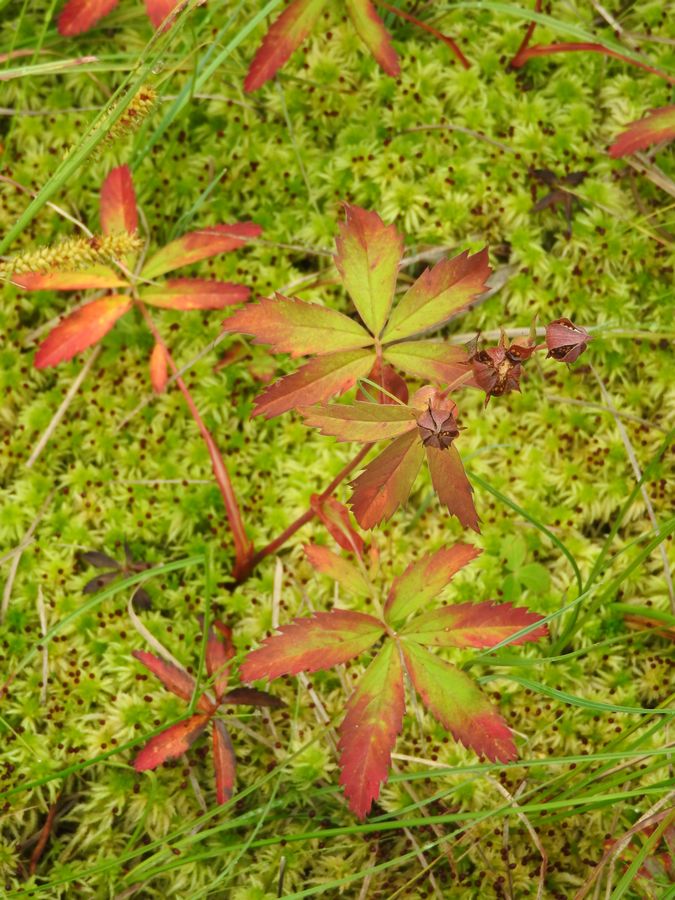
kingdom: Plantae
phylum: Tracheophyta
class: Magnoliopsida
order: Rosales
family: Rosaceae
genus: Comarum
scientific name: Comarum palustre
